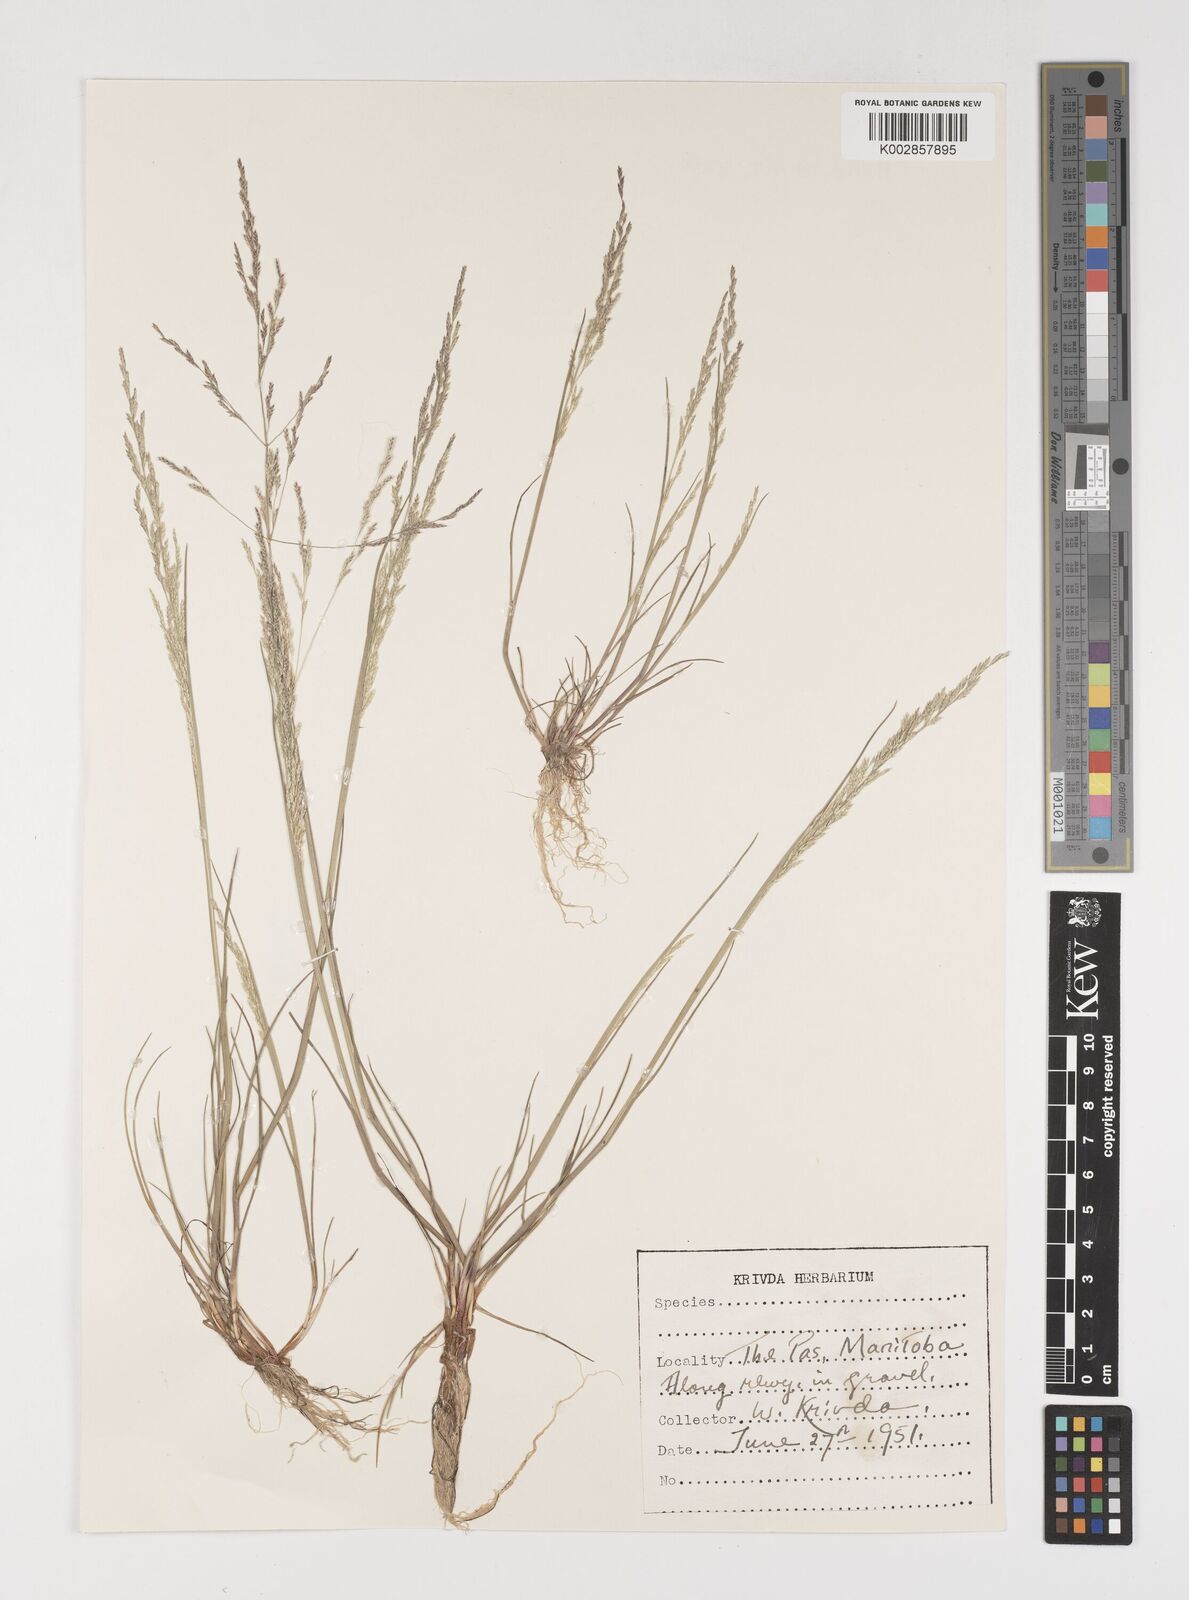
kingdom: Plantae
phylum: Tracheophyta
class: Liliopsida
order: Poales
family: Poaceae
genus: Puccinellia
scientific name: Puccinellia
